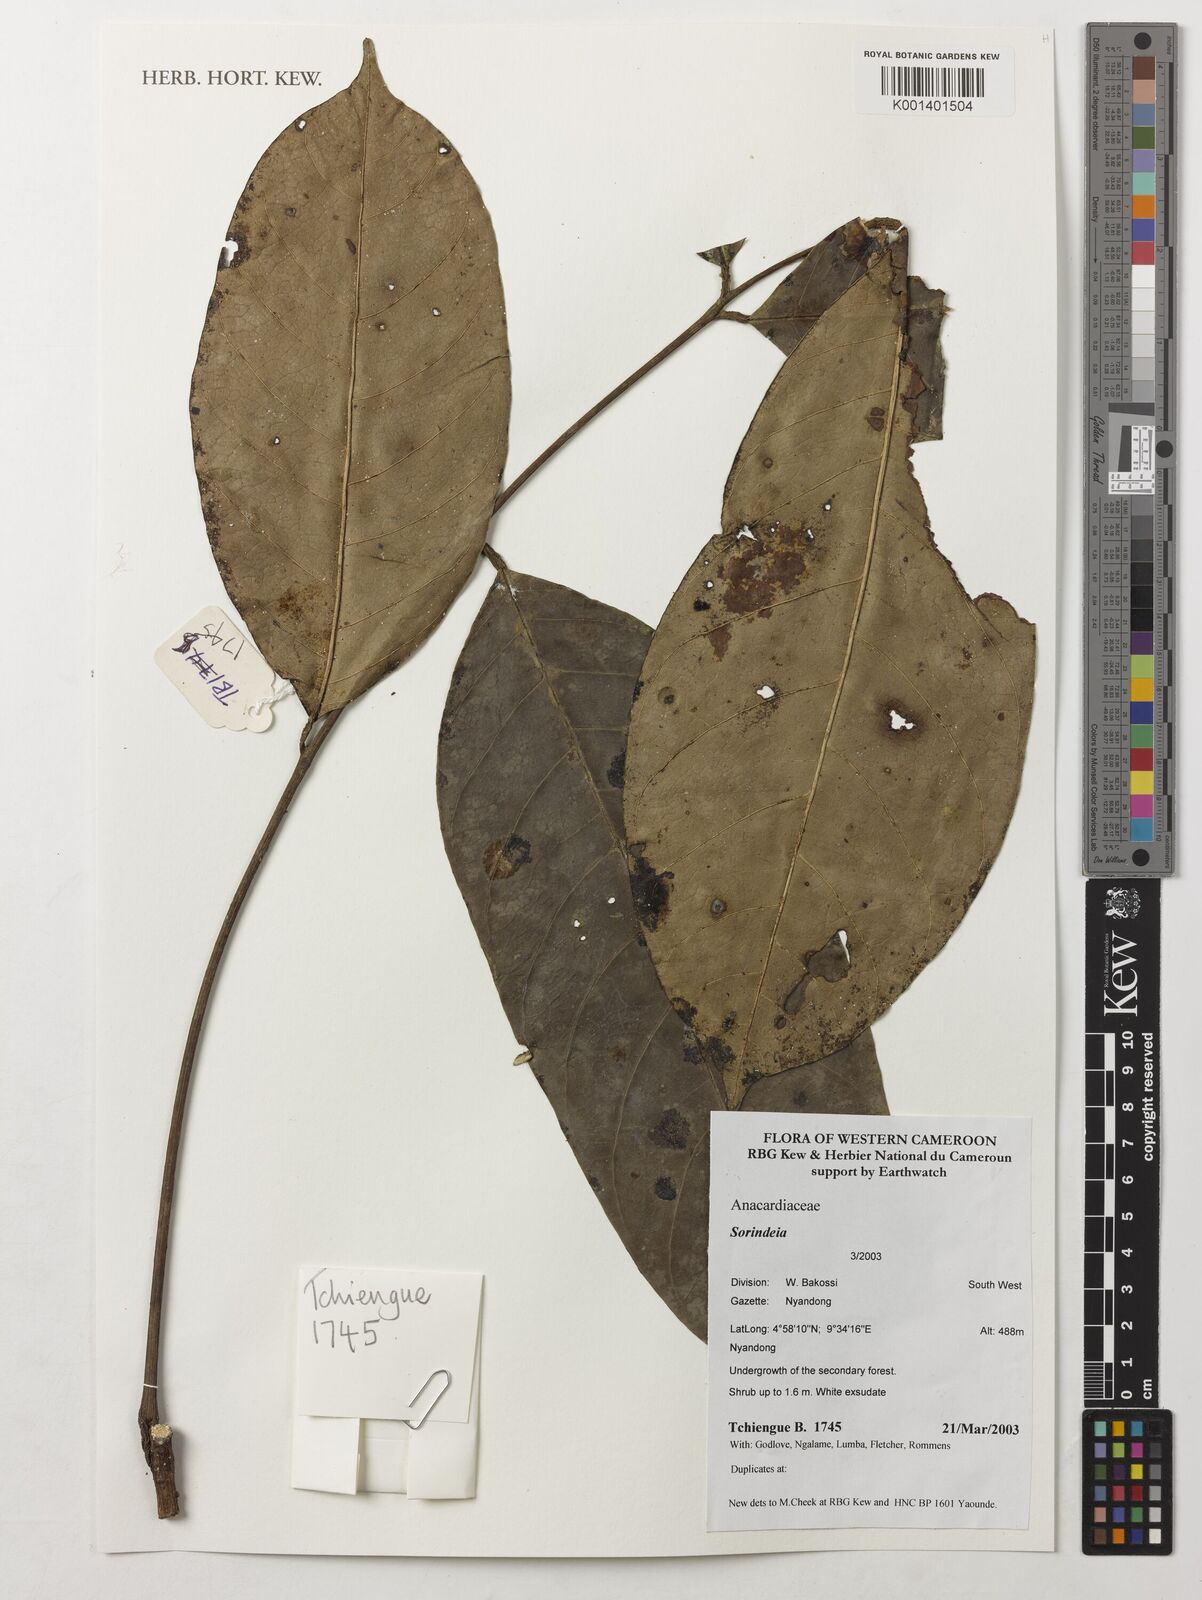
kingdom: Plantae
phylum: Tracheophyta
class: Magnoliopsida
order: Sapindales
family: Anacardiaceae
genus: Sorindeia
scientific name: Sorindeia
